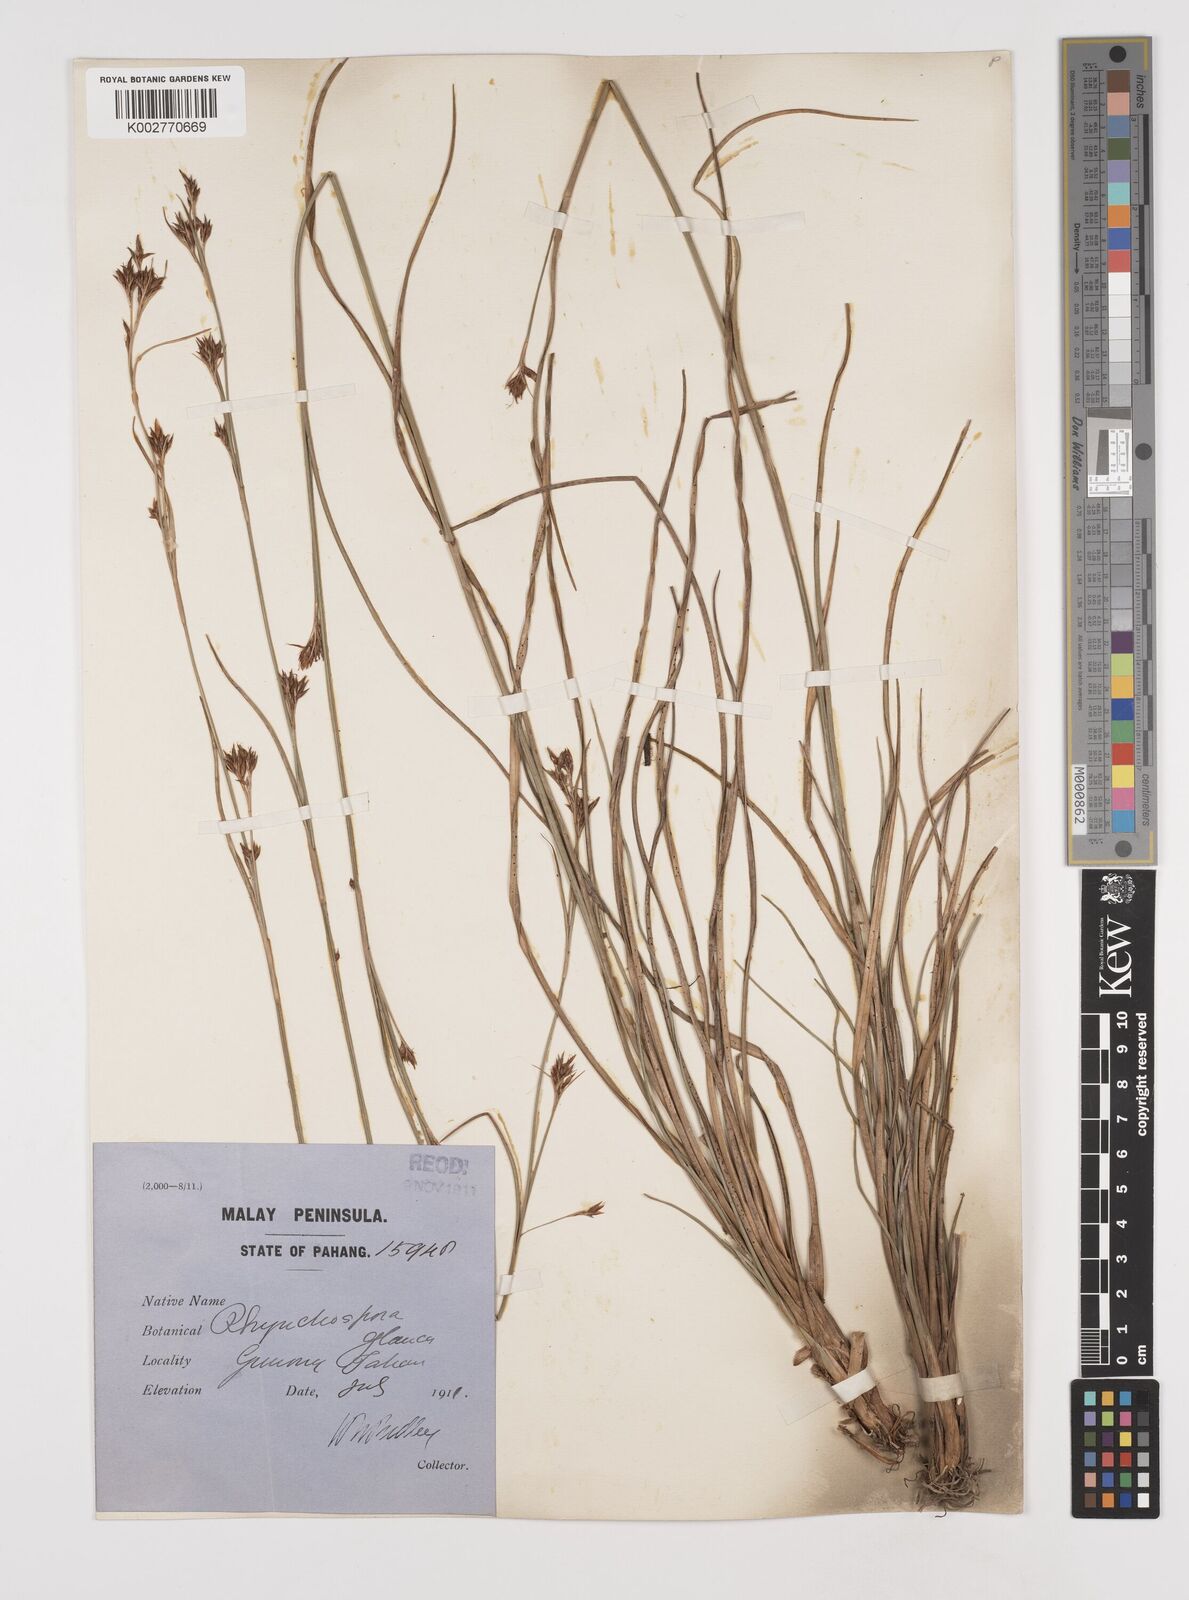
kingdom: Plantae
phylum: Tracheophyta
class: Liliopsida
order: Poales
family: Cyperaceae
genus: Rhynchospora
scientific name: Rhynchospora rugosa
